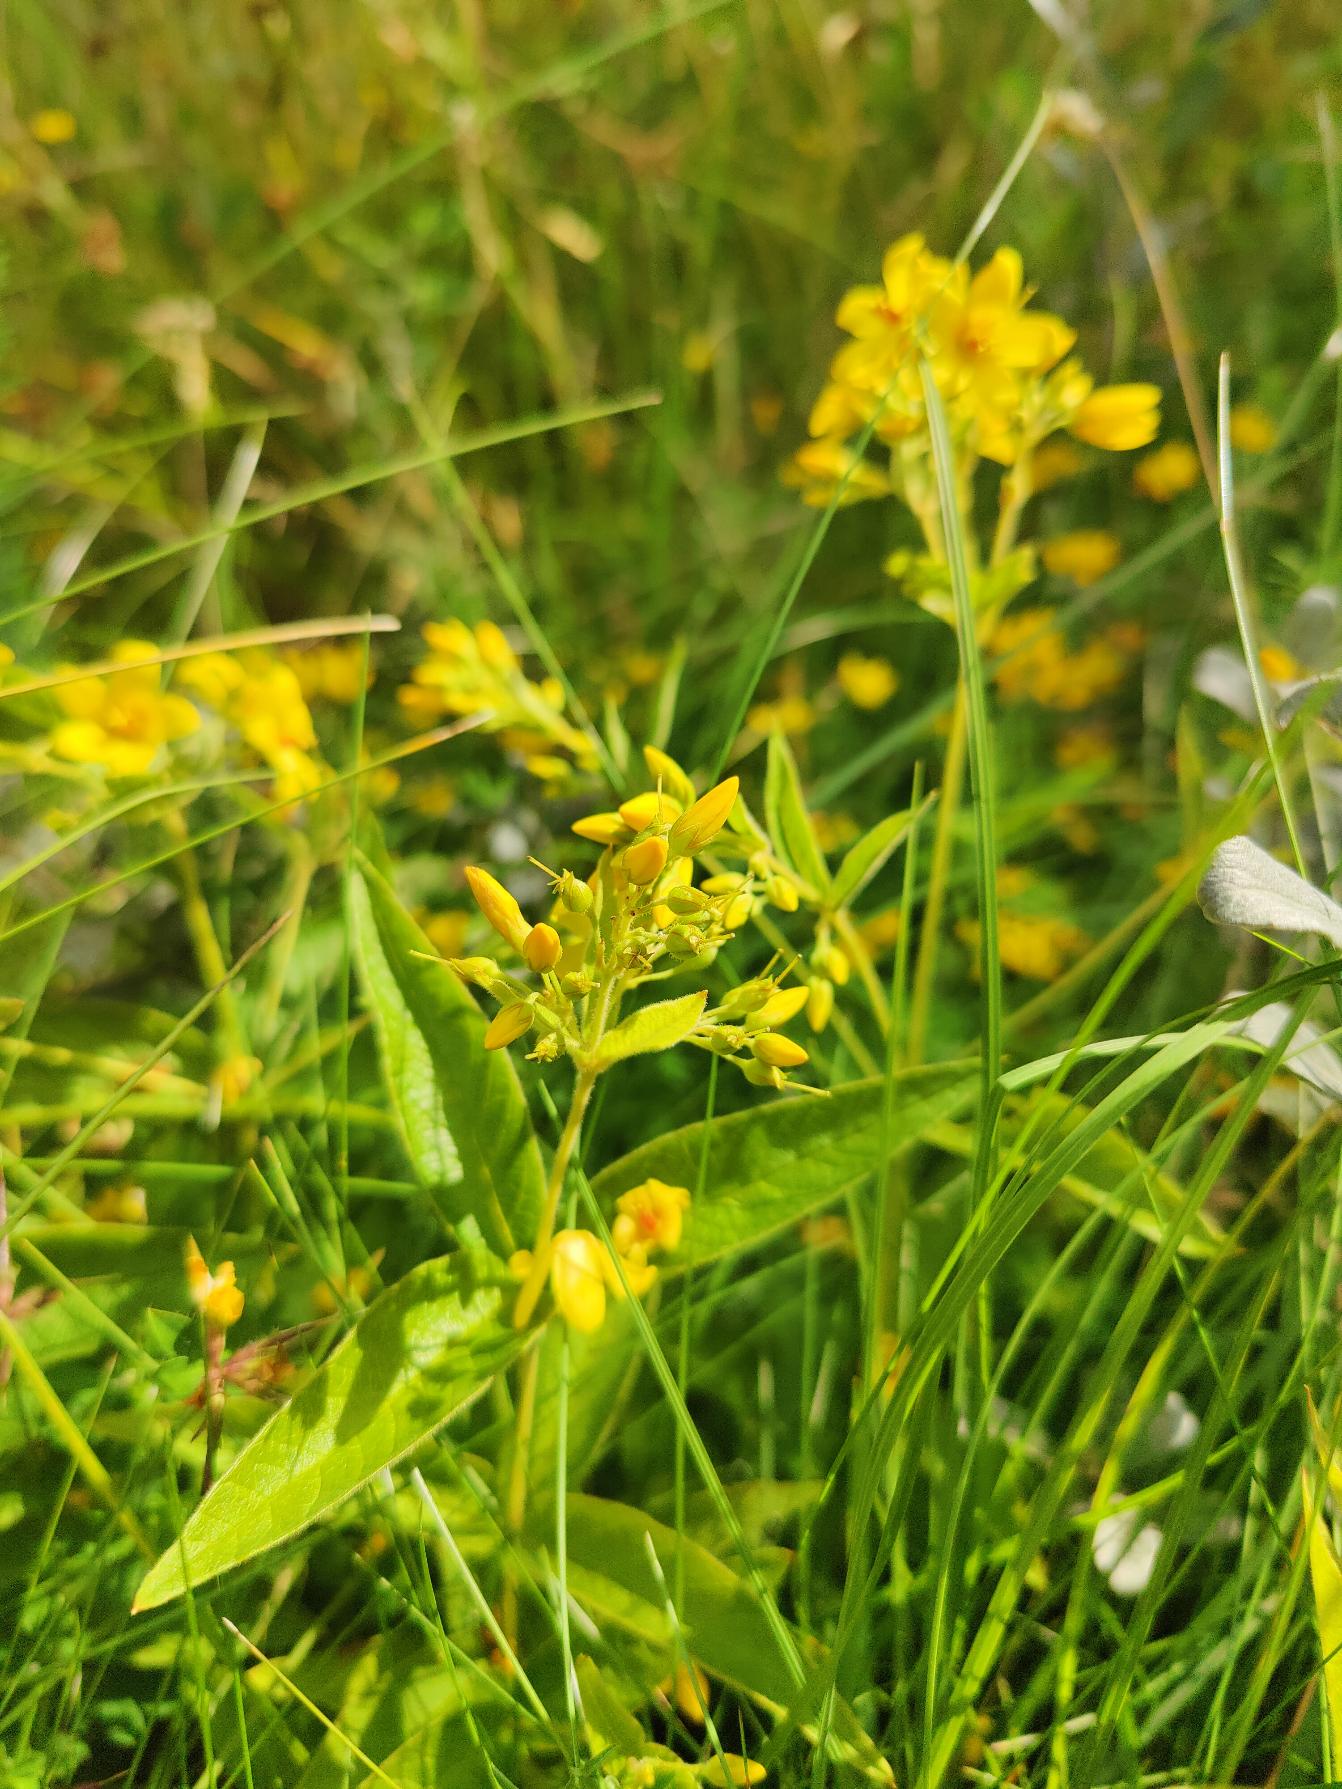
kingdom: Plantae
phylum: Tracheophyta
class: Magnoliopsida
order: Ericales
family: Primulaceae
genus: Lysimachia
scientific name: Lysimachia vulgaris
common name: Almindelig fredløs
